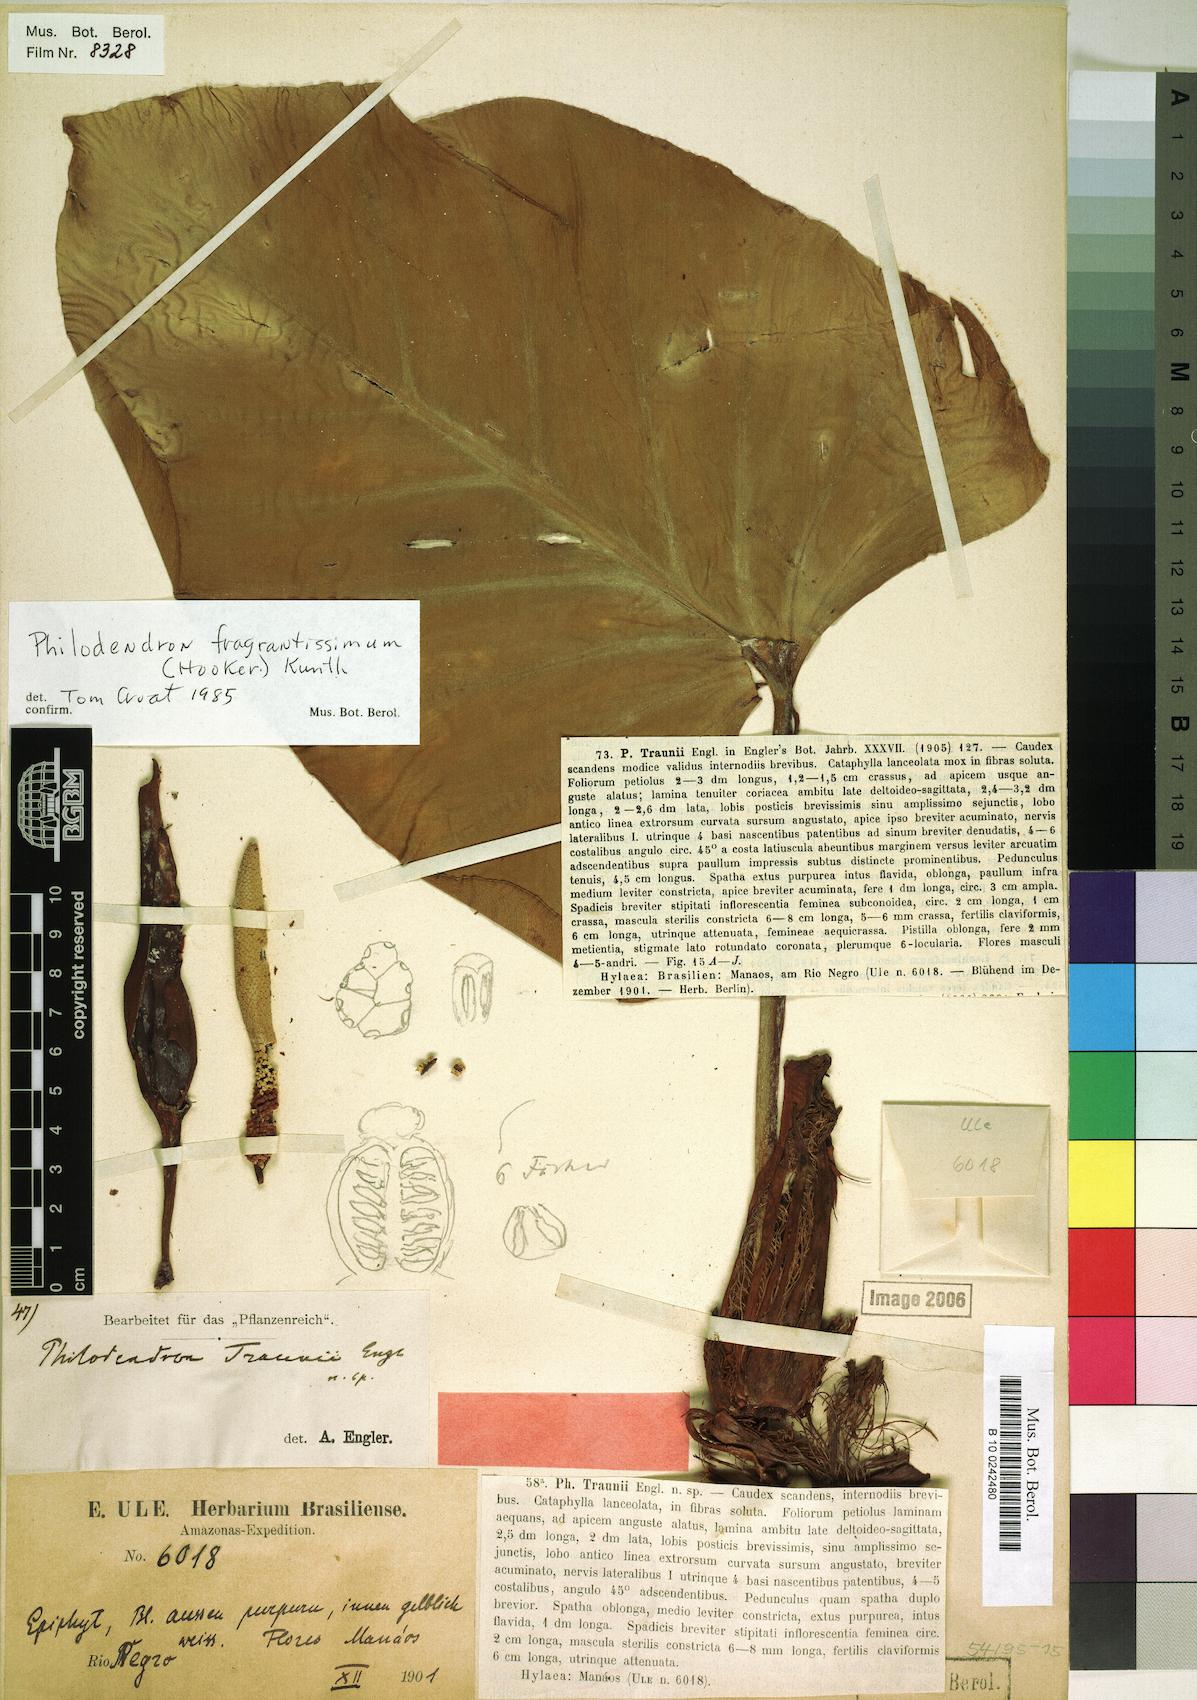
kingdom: Plantae
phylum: Tracheophyta
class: Liliopsida
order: Alismatales
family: Araceae
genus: Philodendron
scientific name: Philodendron fragrantissimum
